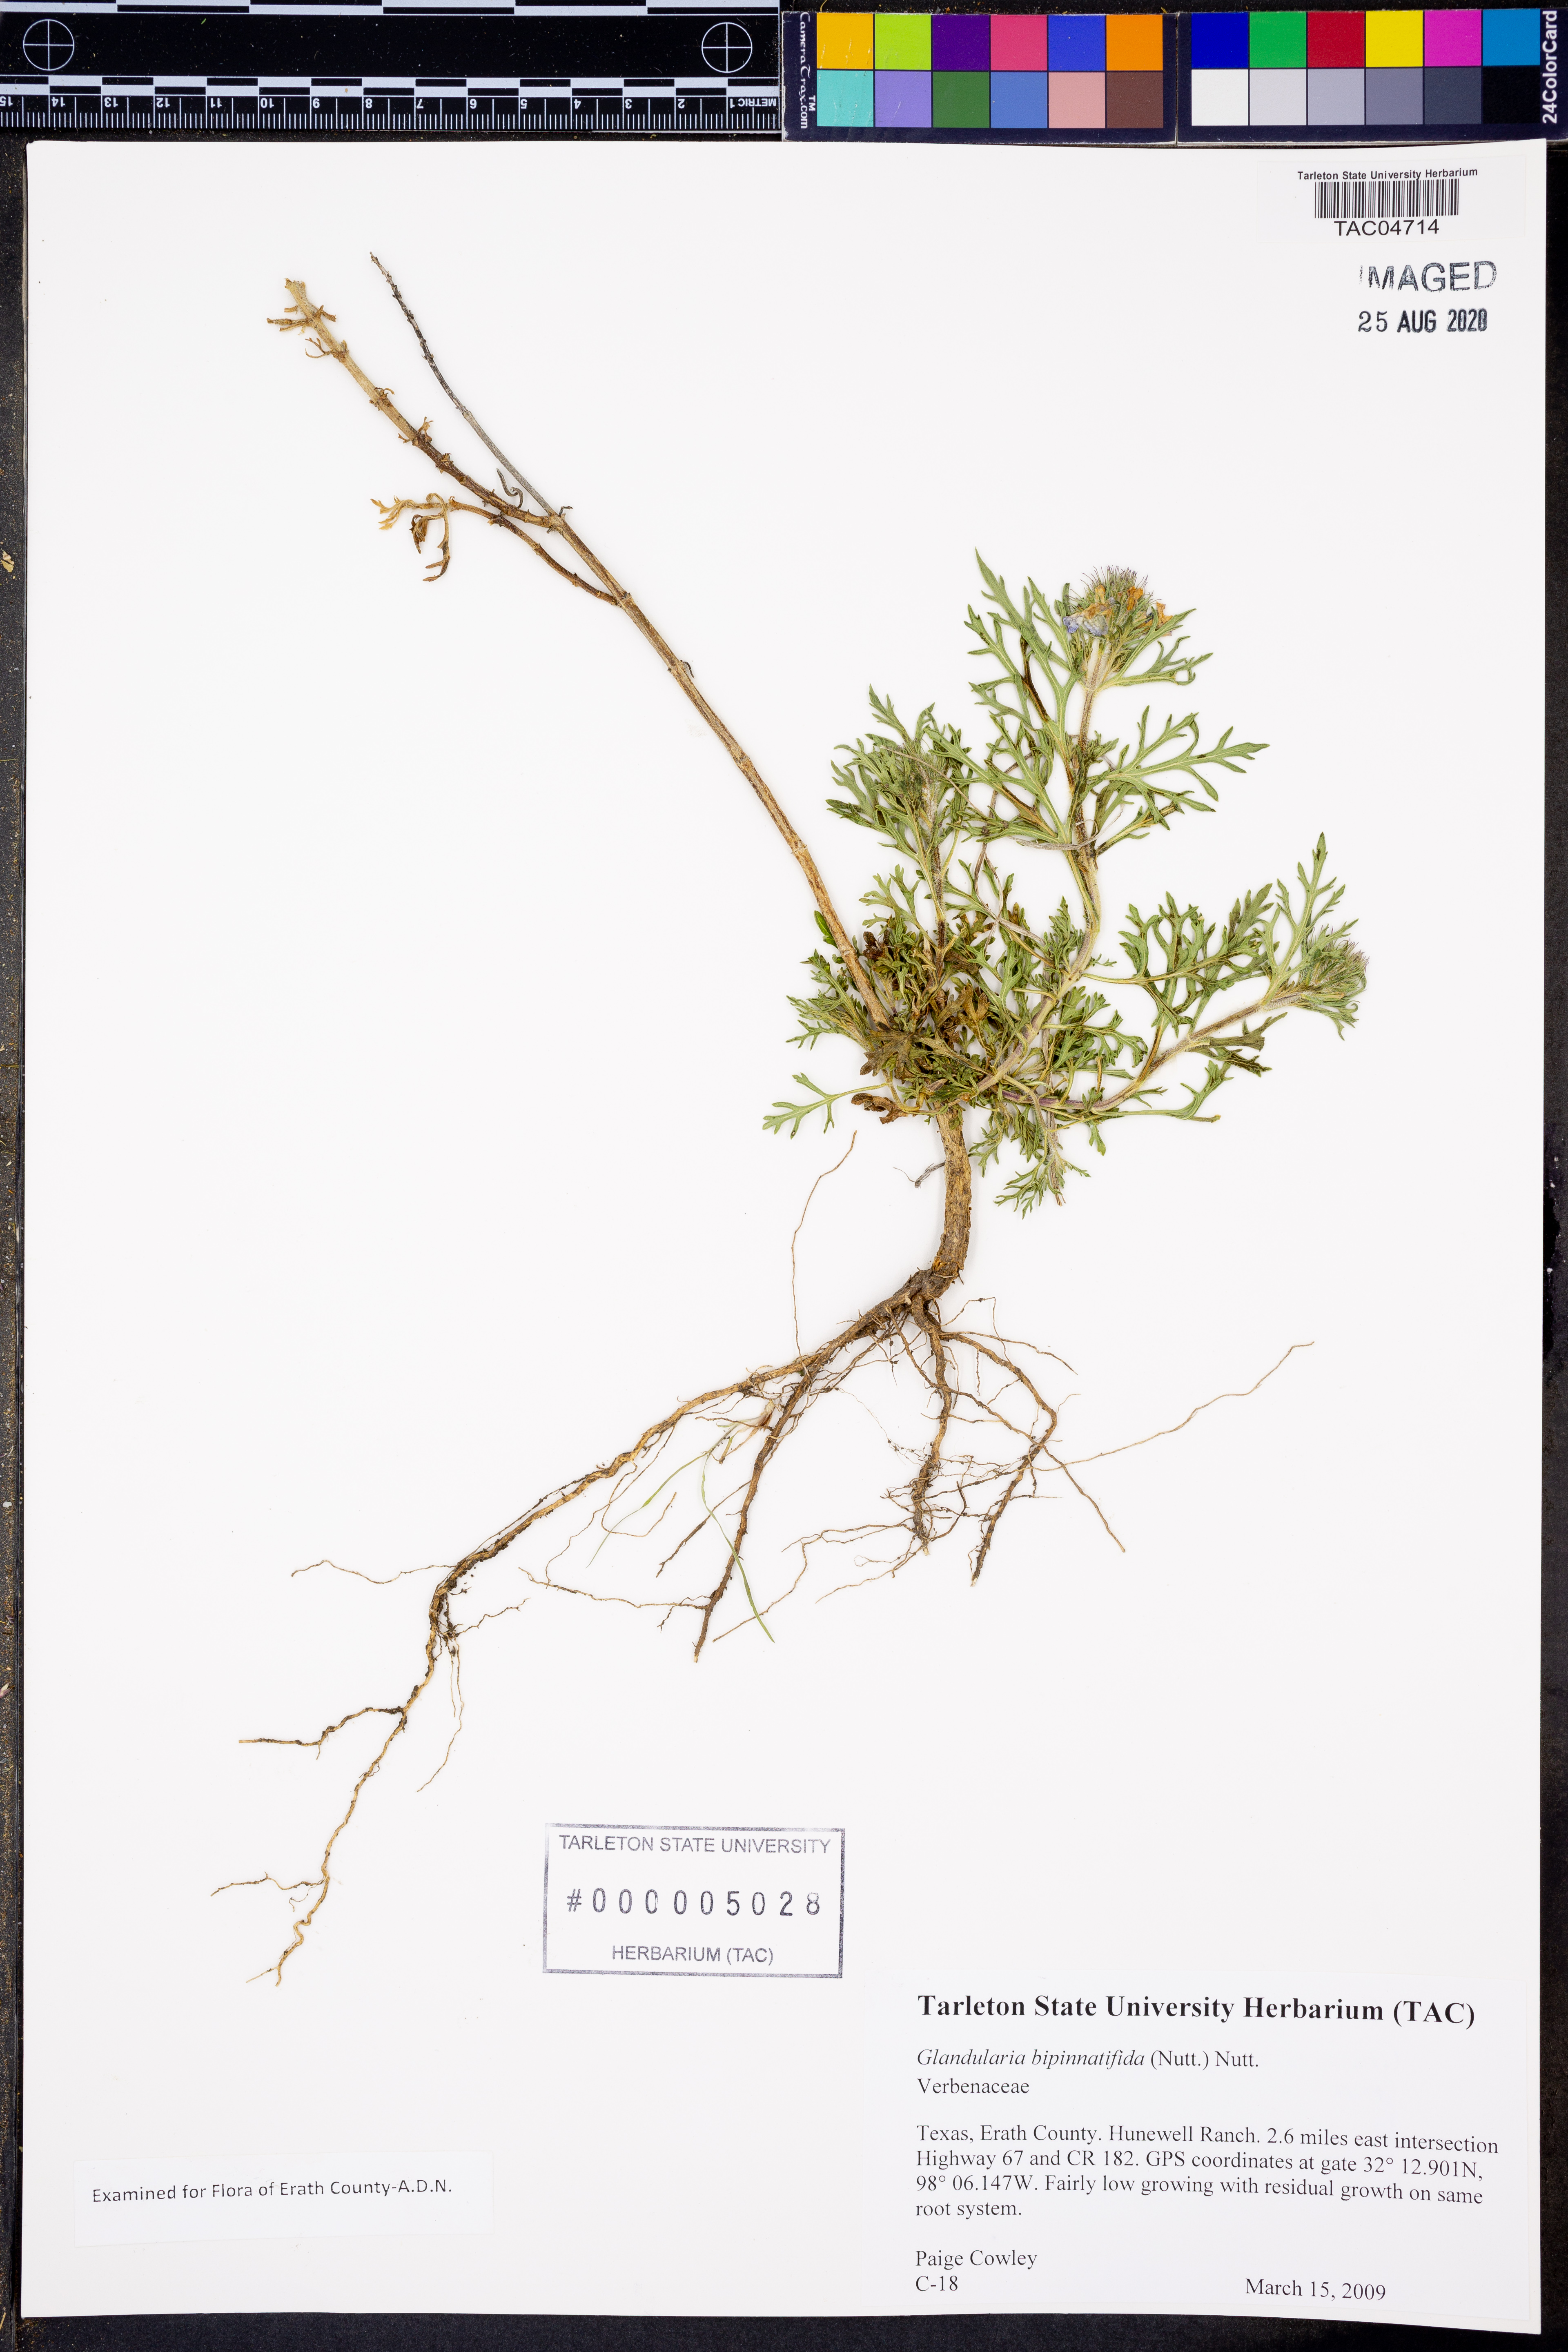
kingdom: Plantae
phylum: Tracheophyta
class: Magnoliopsida
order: Lamiales
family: Verbenaceae
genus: Verbena
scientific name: Verbena bipinnatifida
